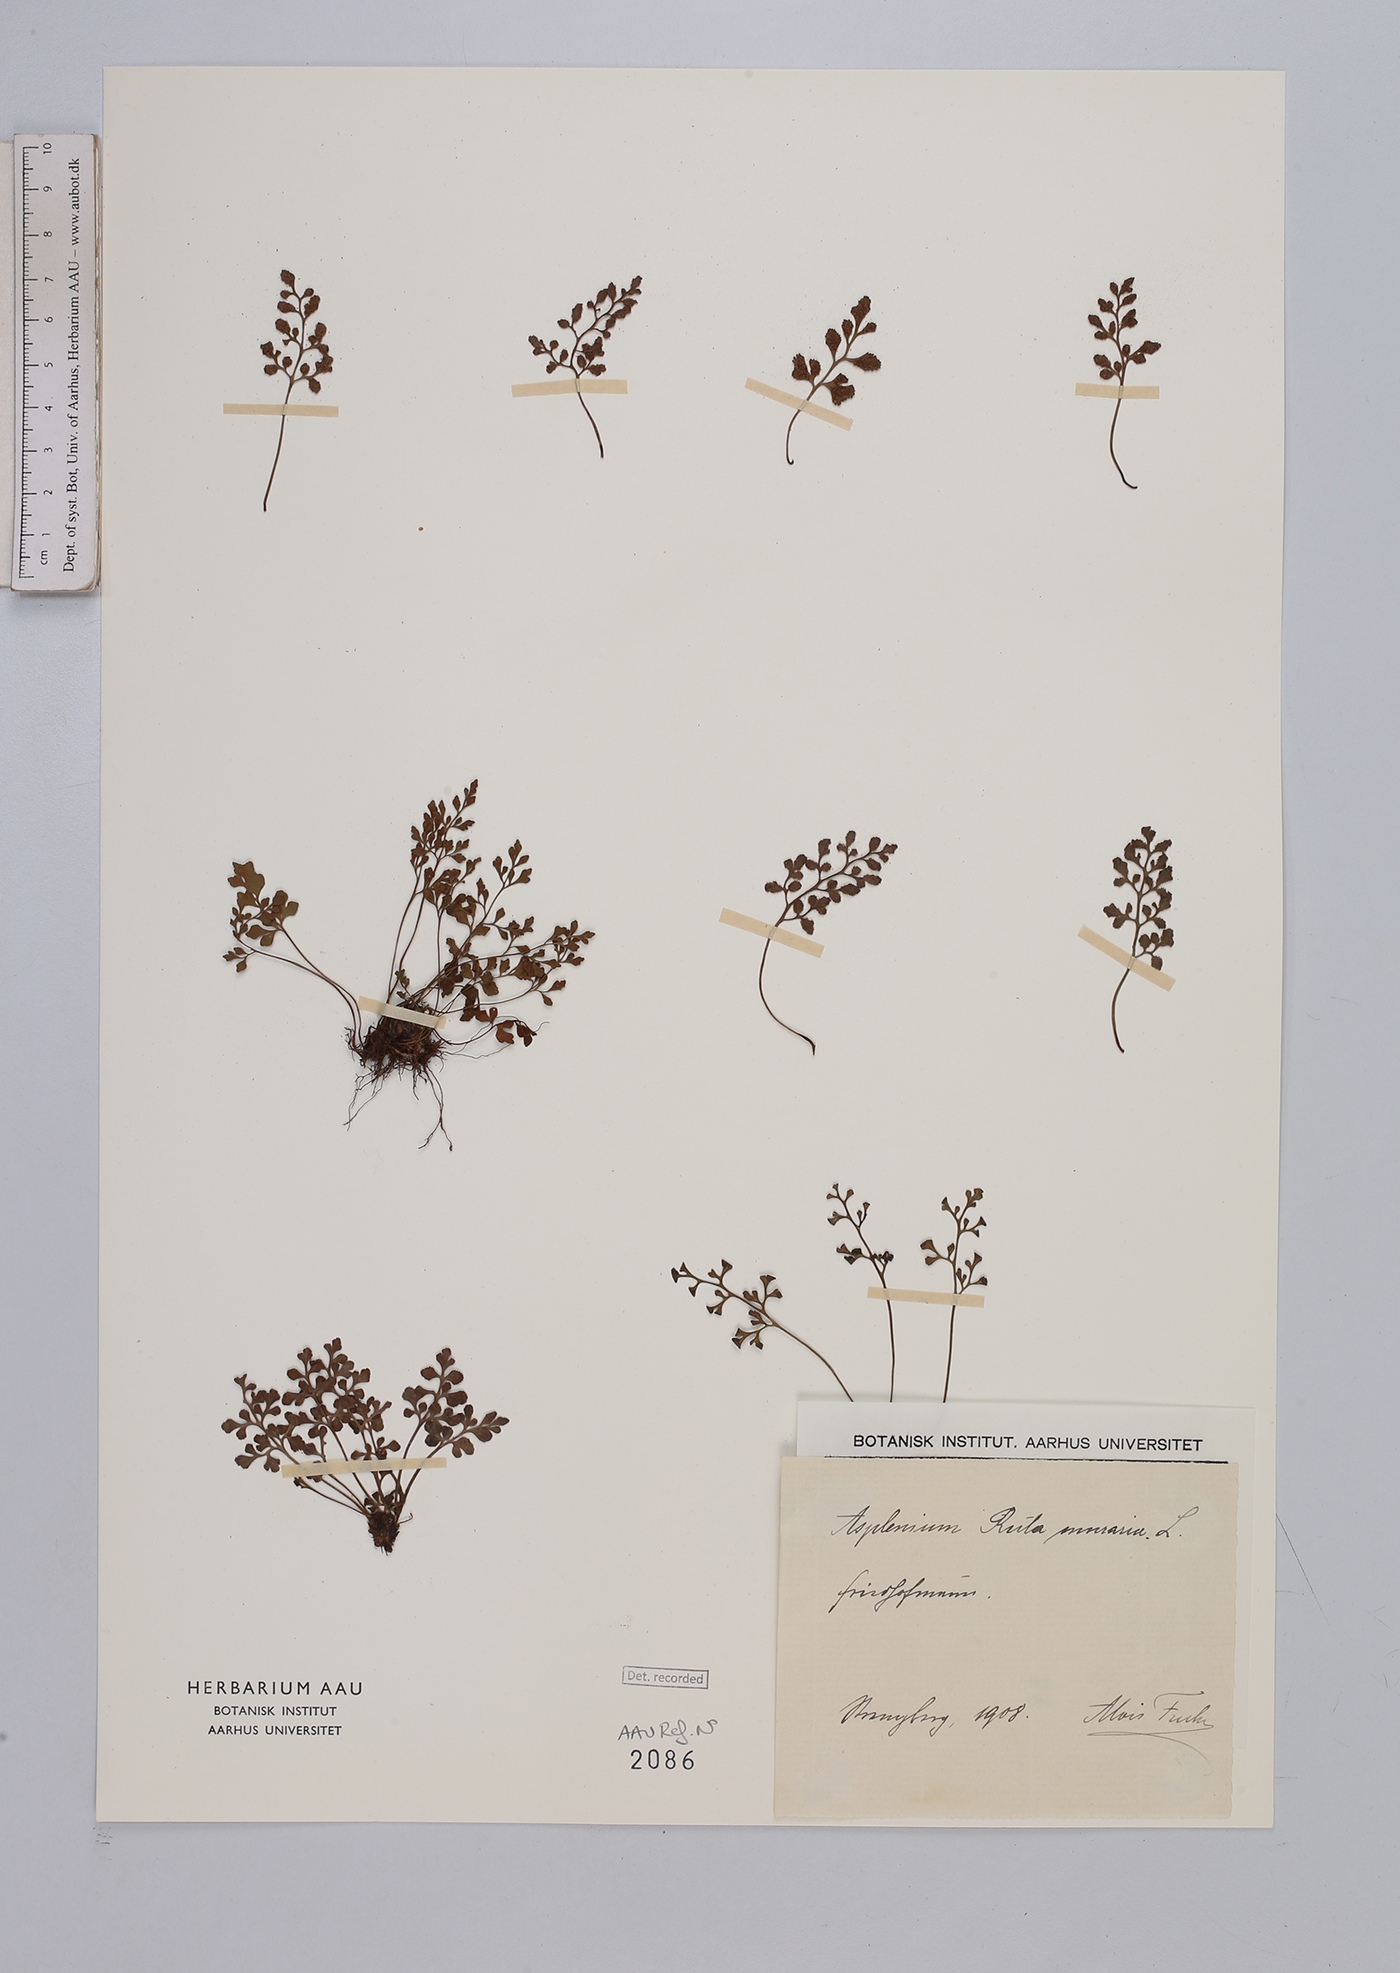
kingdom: Plantae
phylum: Tracheophyta
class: Polypodiopsida
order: Polypodiales
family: Aspleniaceae
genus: Asplenium
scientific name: Asplenium ruta-muraria
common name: Wall-rue
